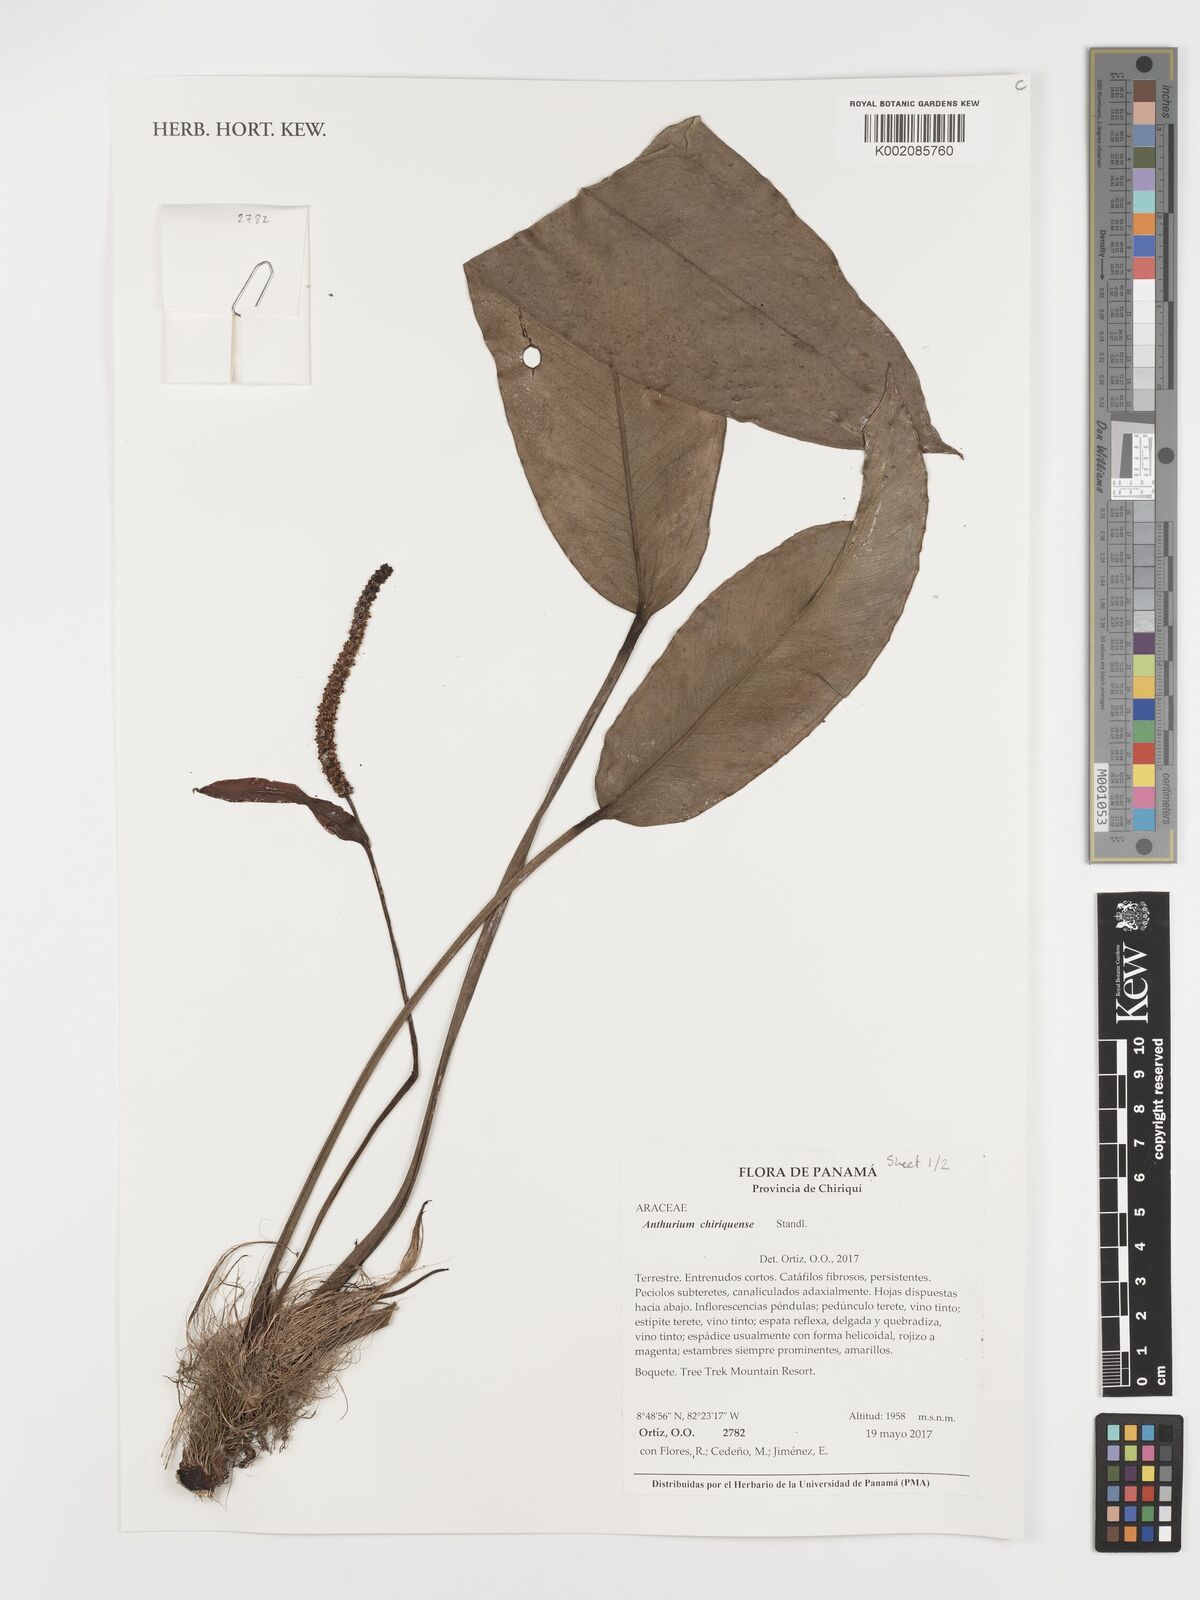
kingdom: Plantae
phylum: Tracheophyta
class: Liliopsida
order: Alismatales
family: Araceae
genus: Anthurium
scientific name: Anthurium chiriquense
